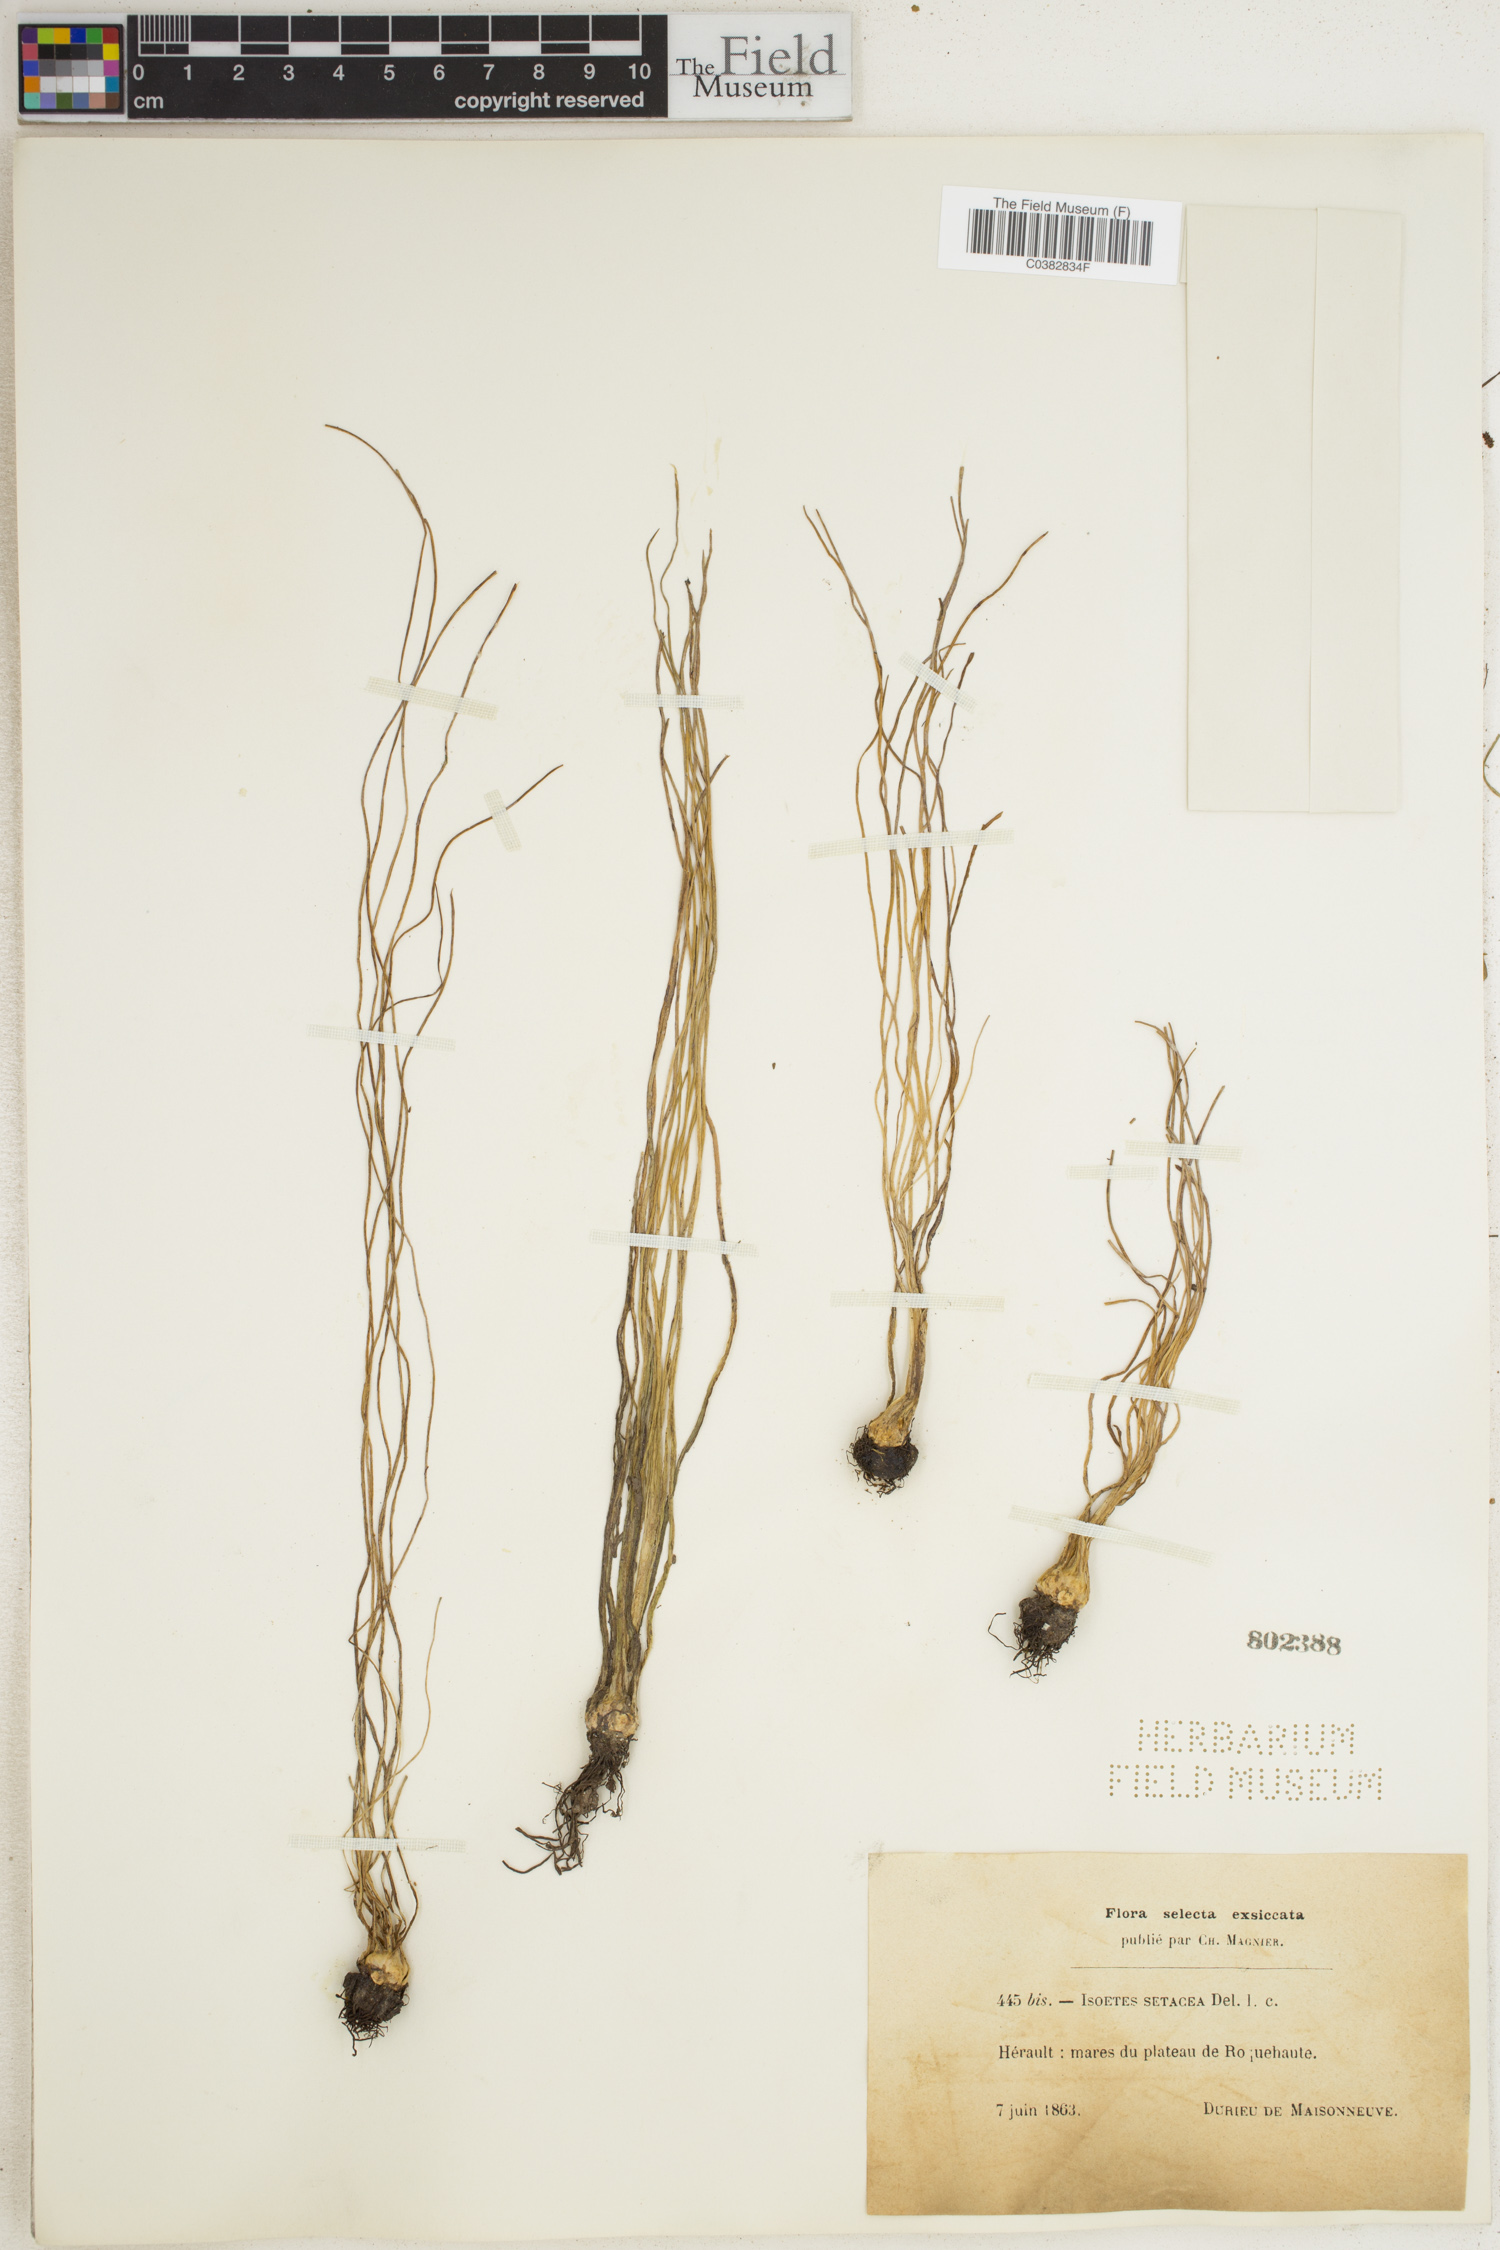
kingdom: Plantae
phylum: Tracheophyta
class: Lycopodiopsida
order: Isoetales
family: Isoetaceae
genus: Isoetes
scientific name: Isoetes lacustris
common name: Common quillwort
